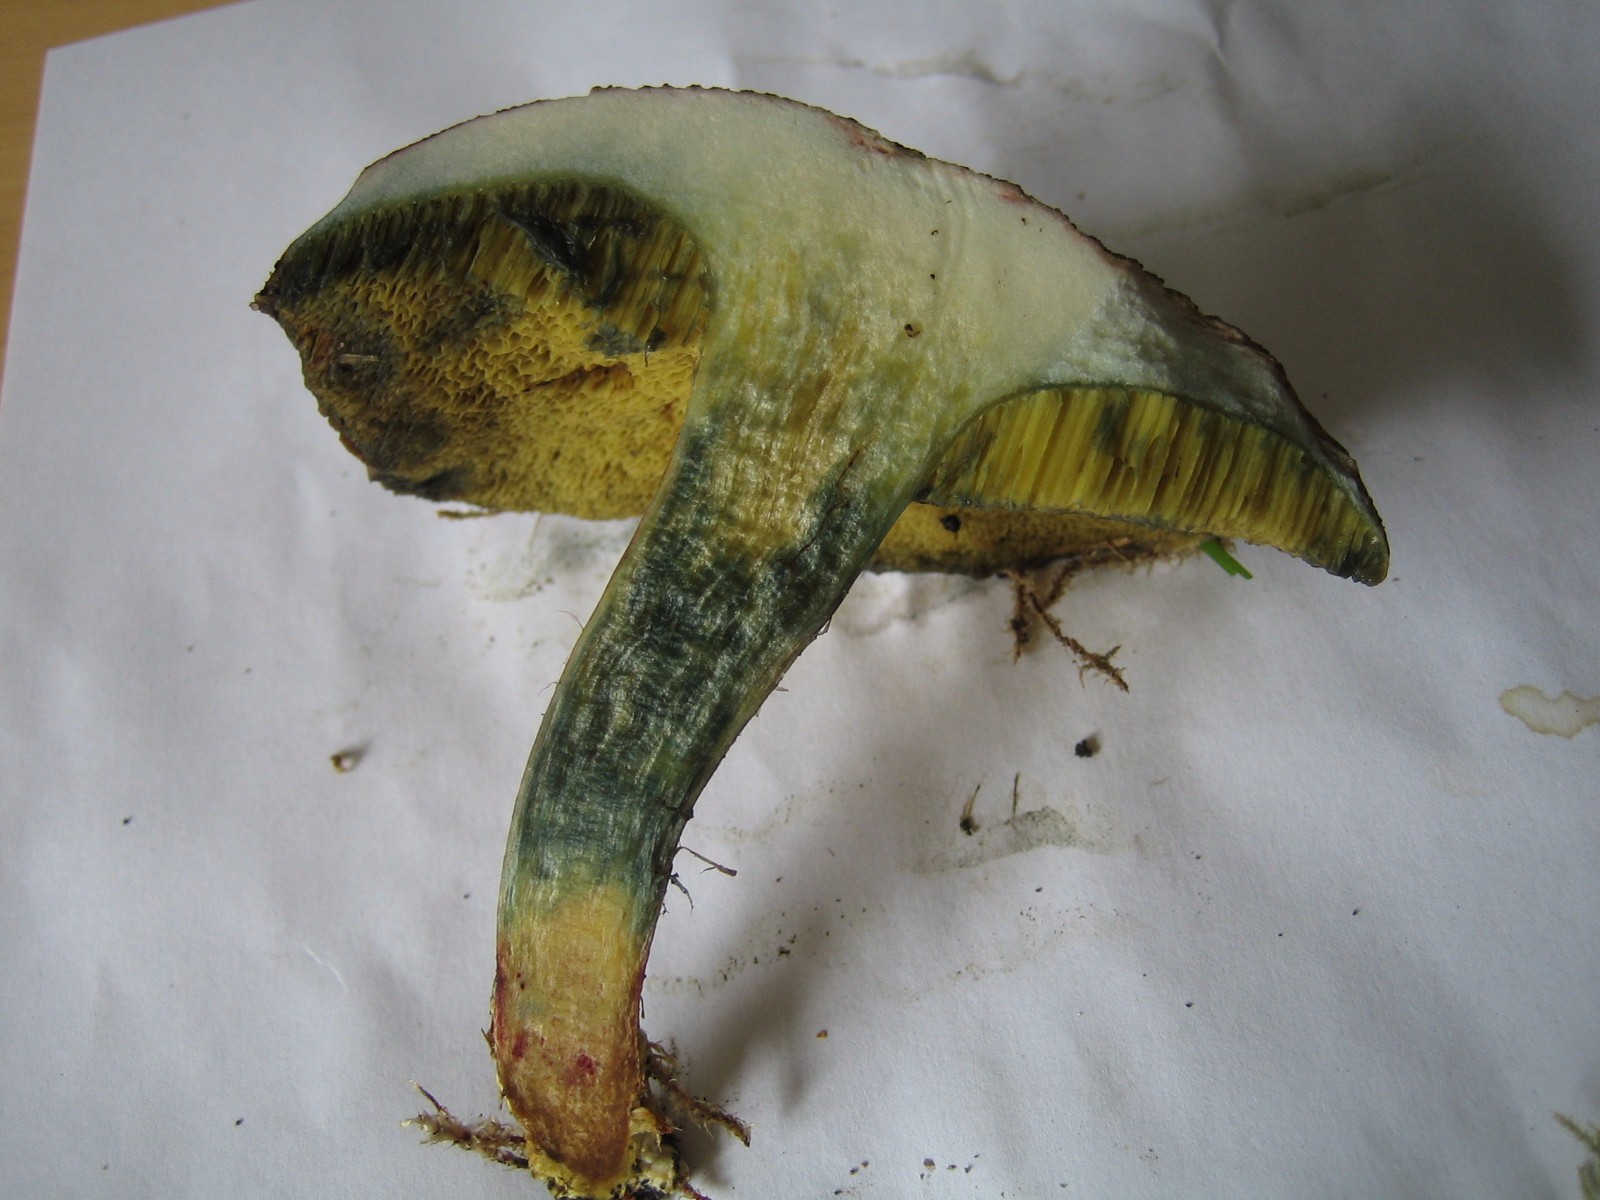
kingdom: Fungi
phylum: Basidiomycota
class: Agaricomycetes
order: Boletales
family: Boletaceae
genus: Xerocomellus
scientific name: Xerocomellus cisalpinus
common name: finsprukken rørhat
